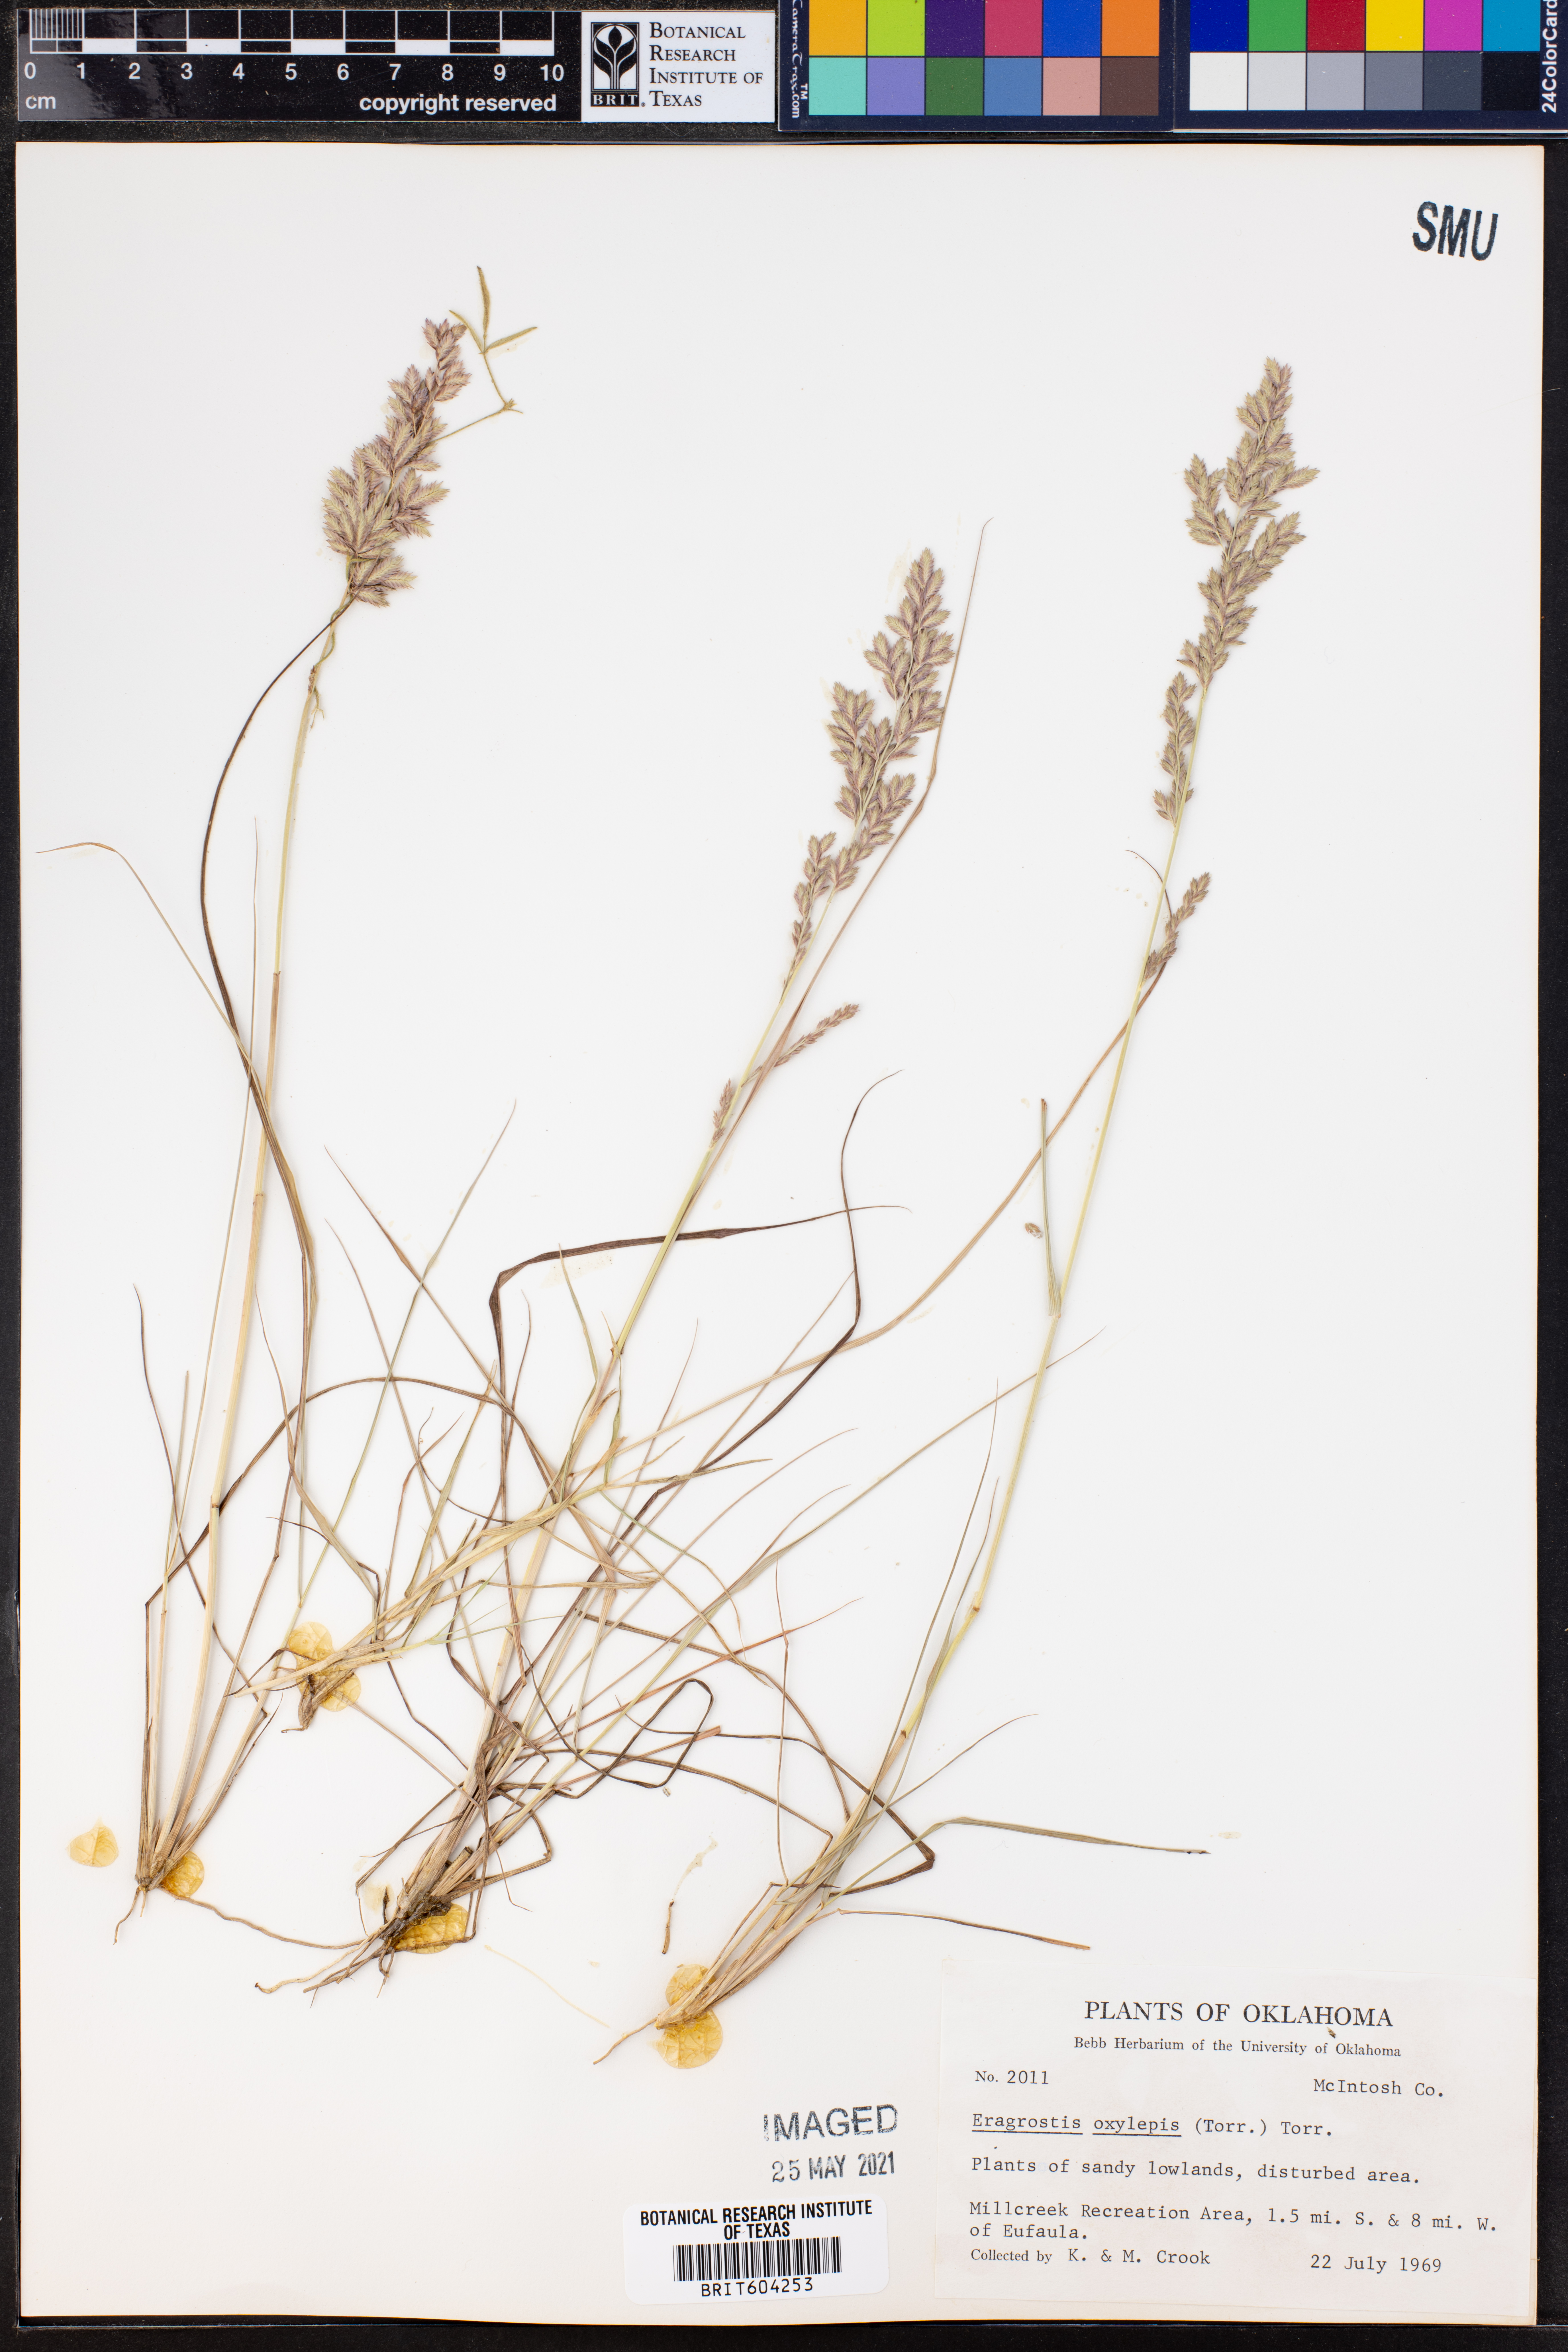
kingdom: Plantae
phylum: Tracheophyta
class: Liliopsida
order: Poales
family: Poaceae
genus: Eragrostis
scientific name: Eragrostis secundiflora
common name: Red love grass
